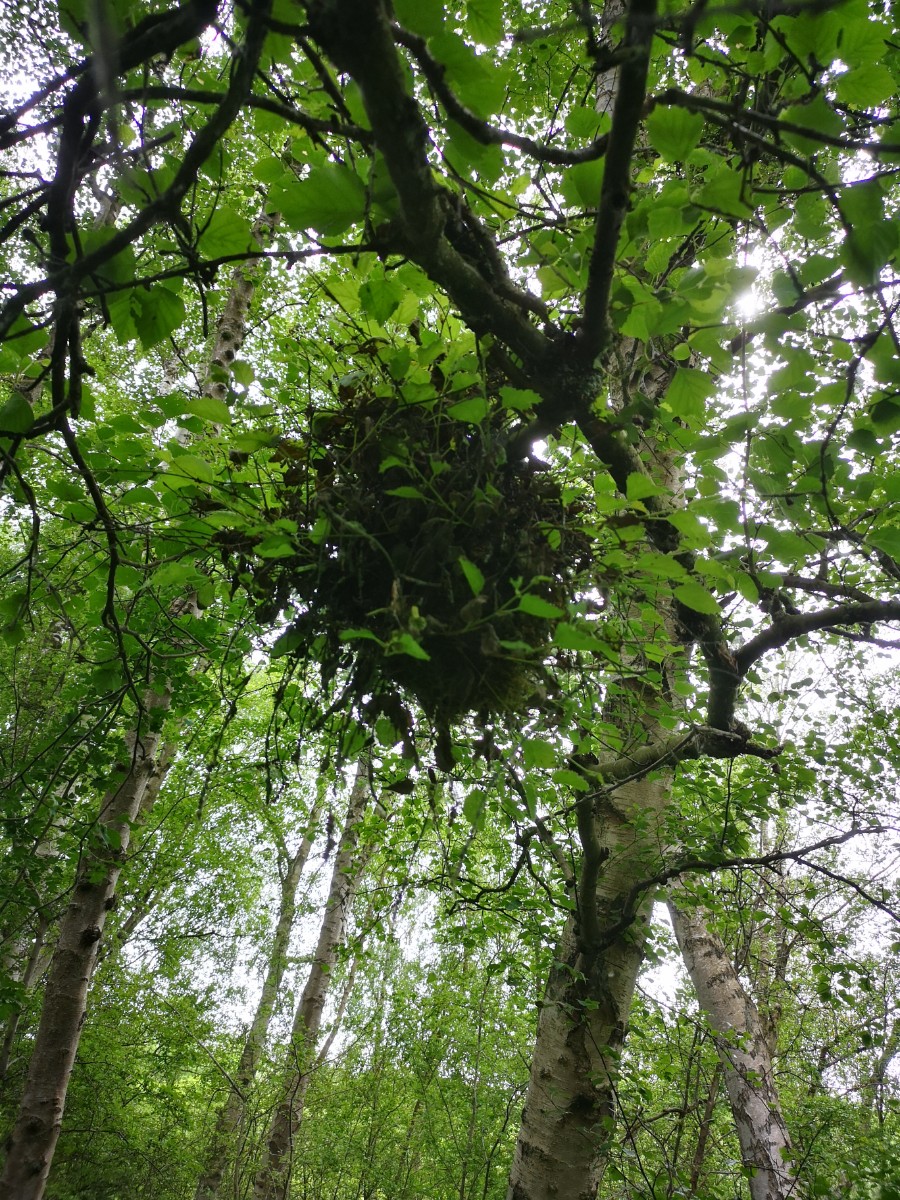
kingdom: Fungi
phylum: Ascomycota
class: Taphrinomycetes
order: Taphrinales
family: Taphrinaceae
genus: Taphrina
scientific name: Taphrina betulina
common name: hekse-sækdug
